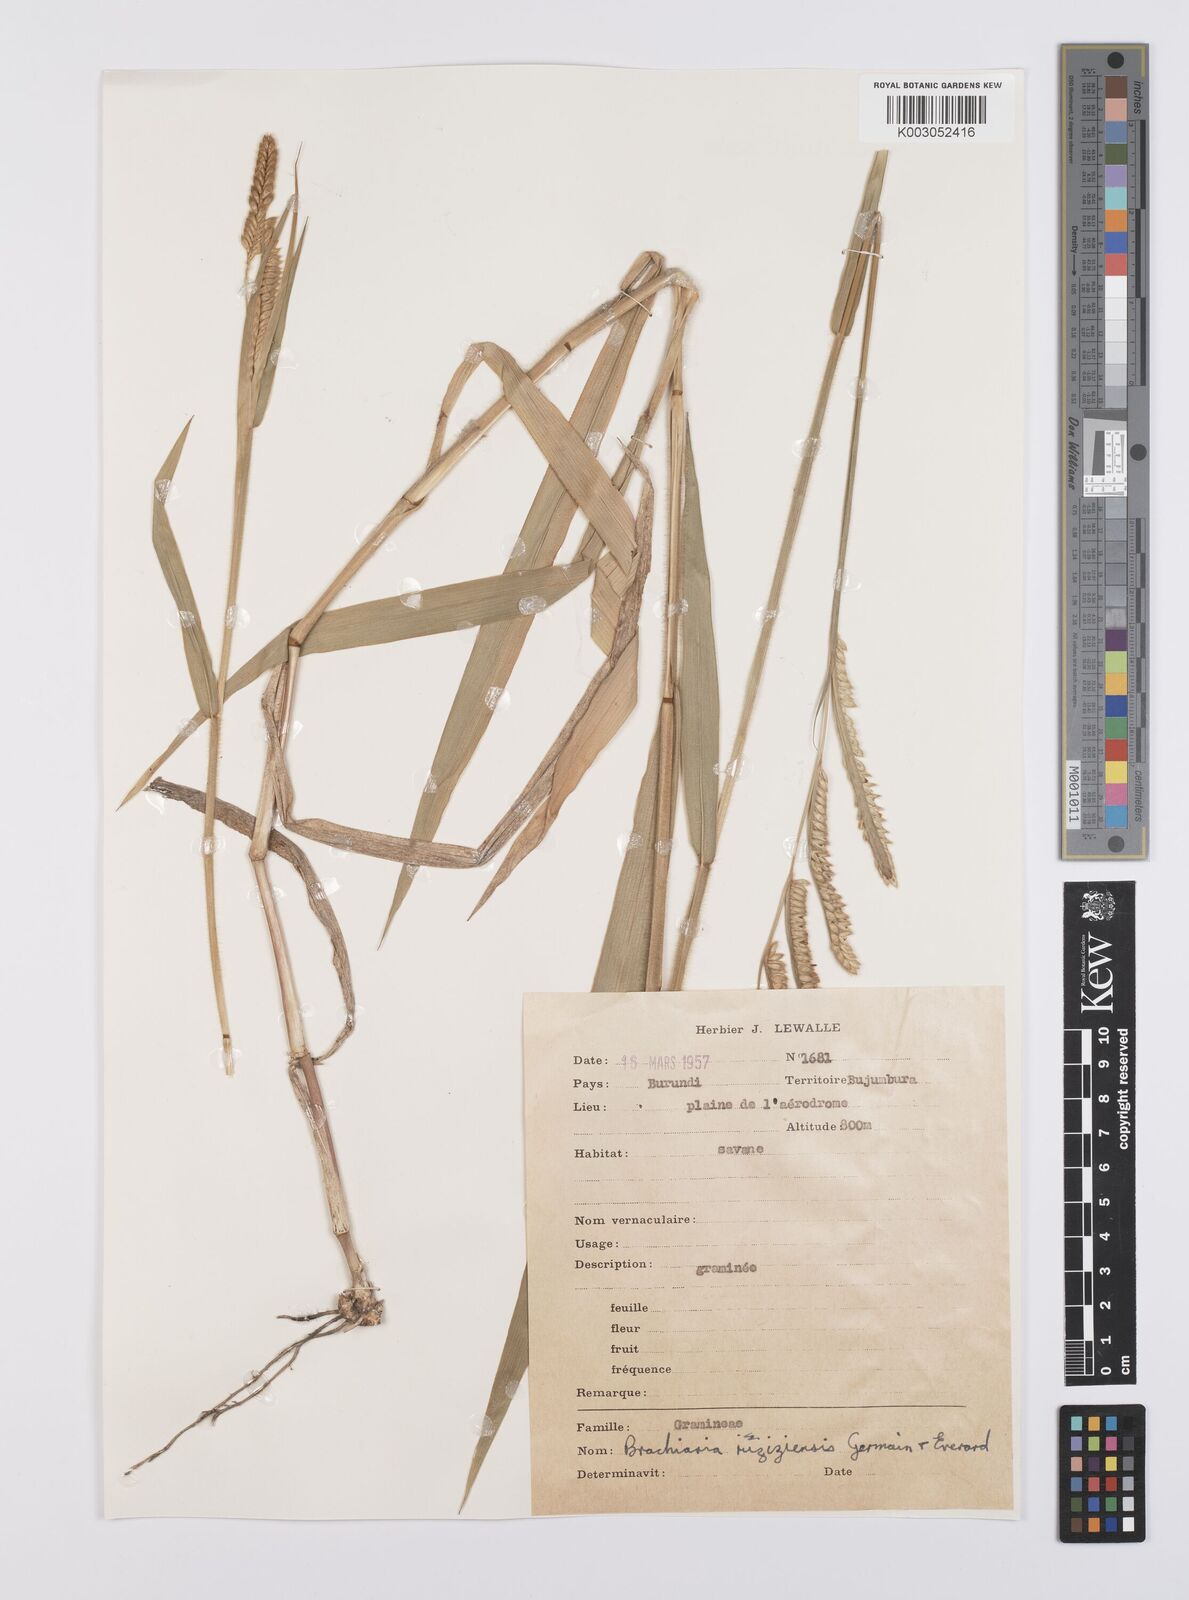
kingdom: Plantae
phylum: Tracheophyta
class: Liliopsida
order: Poales
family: Poaceae
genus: Urochloa
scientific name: Urochloa eminii
